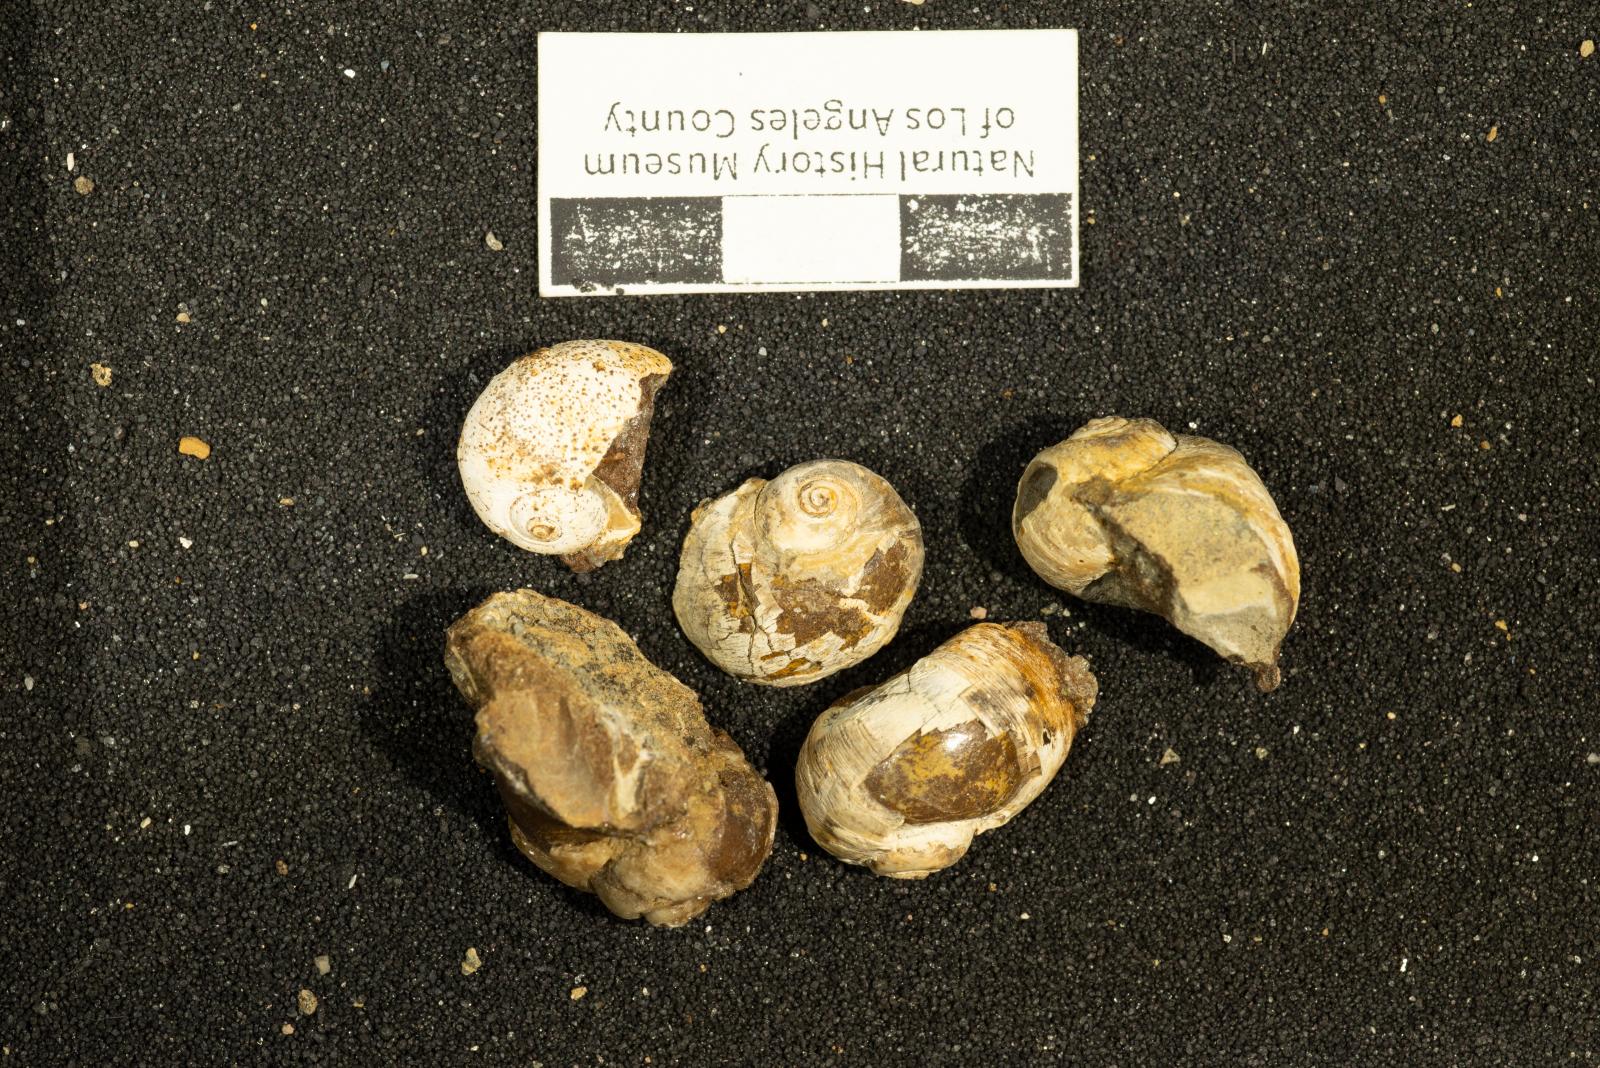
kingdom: Animalia
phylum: Mollusca
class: Gastropoda
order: Littorinimorpha
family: Naticidae
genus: Hypterita
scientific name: Hypterita robsauli
